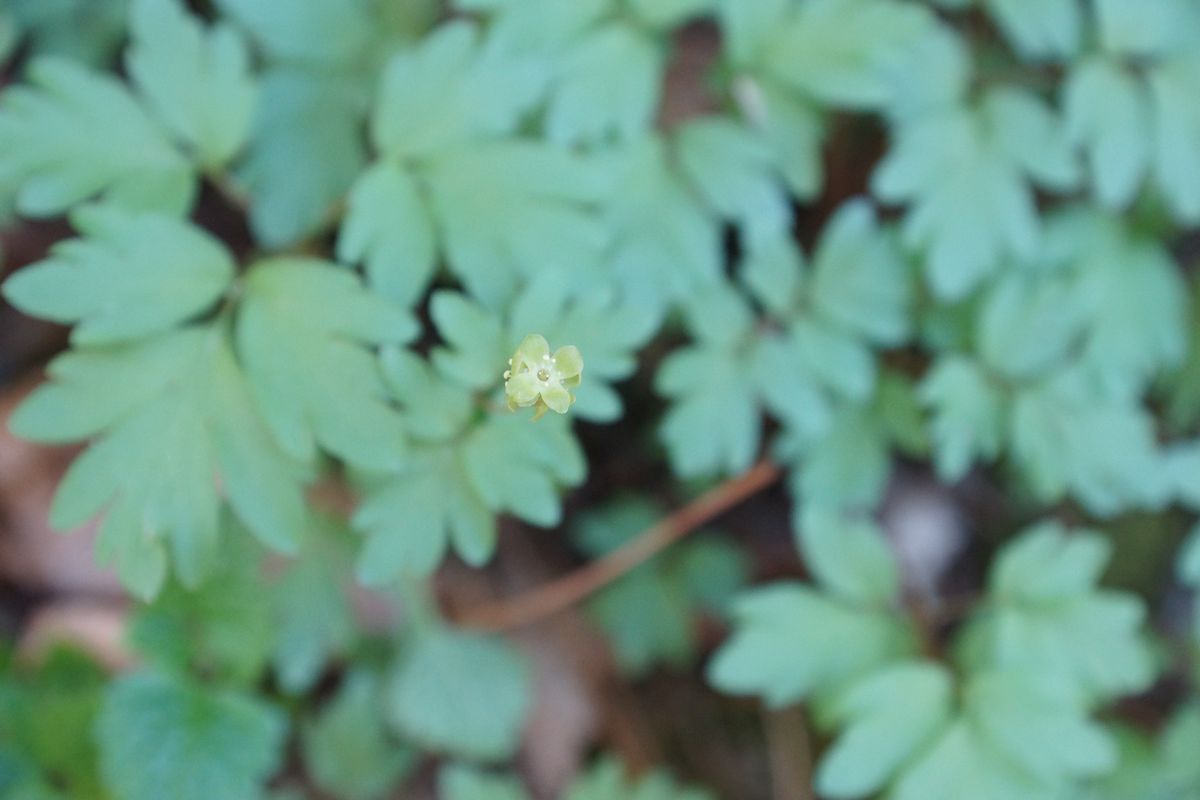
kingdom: Plantae
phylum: Tracheophyta
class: Magnoliopsida
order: Dipsacales
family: Viburnaceae
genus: Adoxa
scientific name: Adoxa moschatellina
